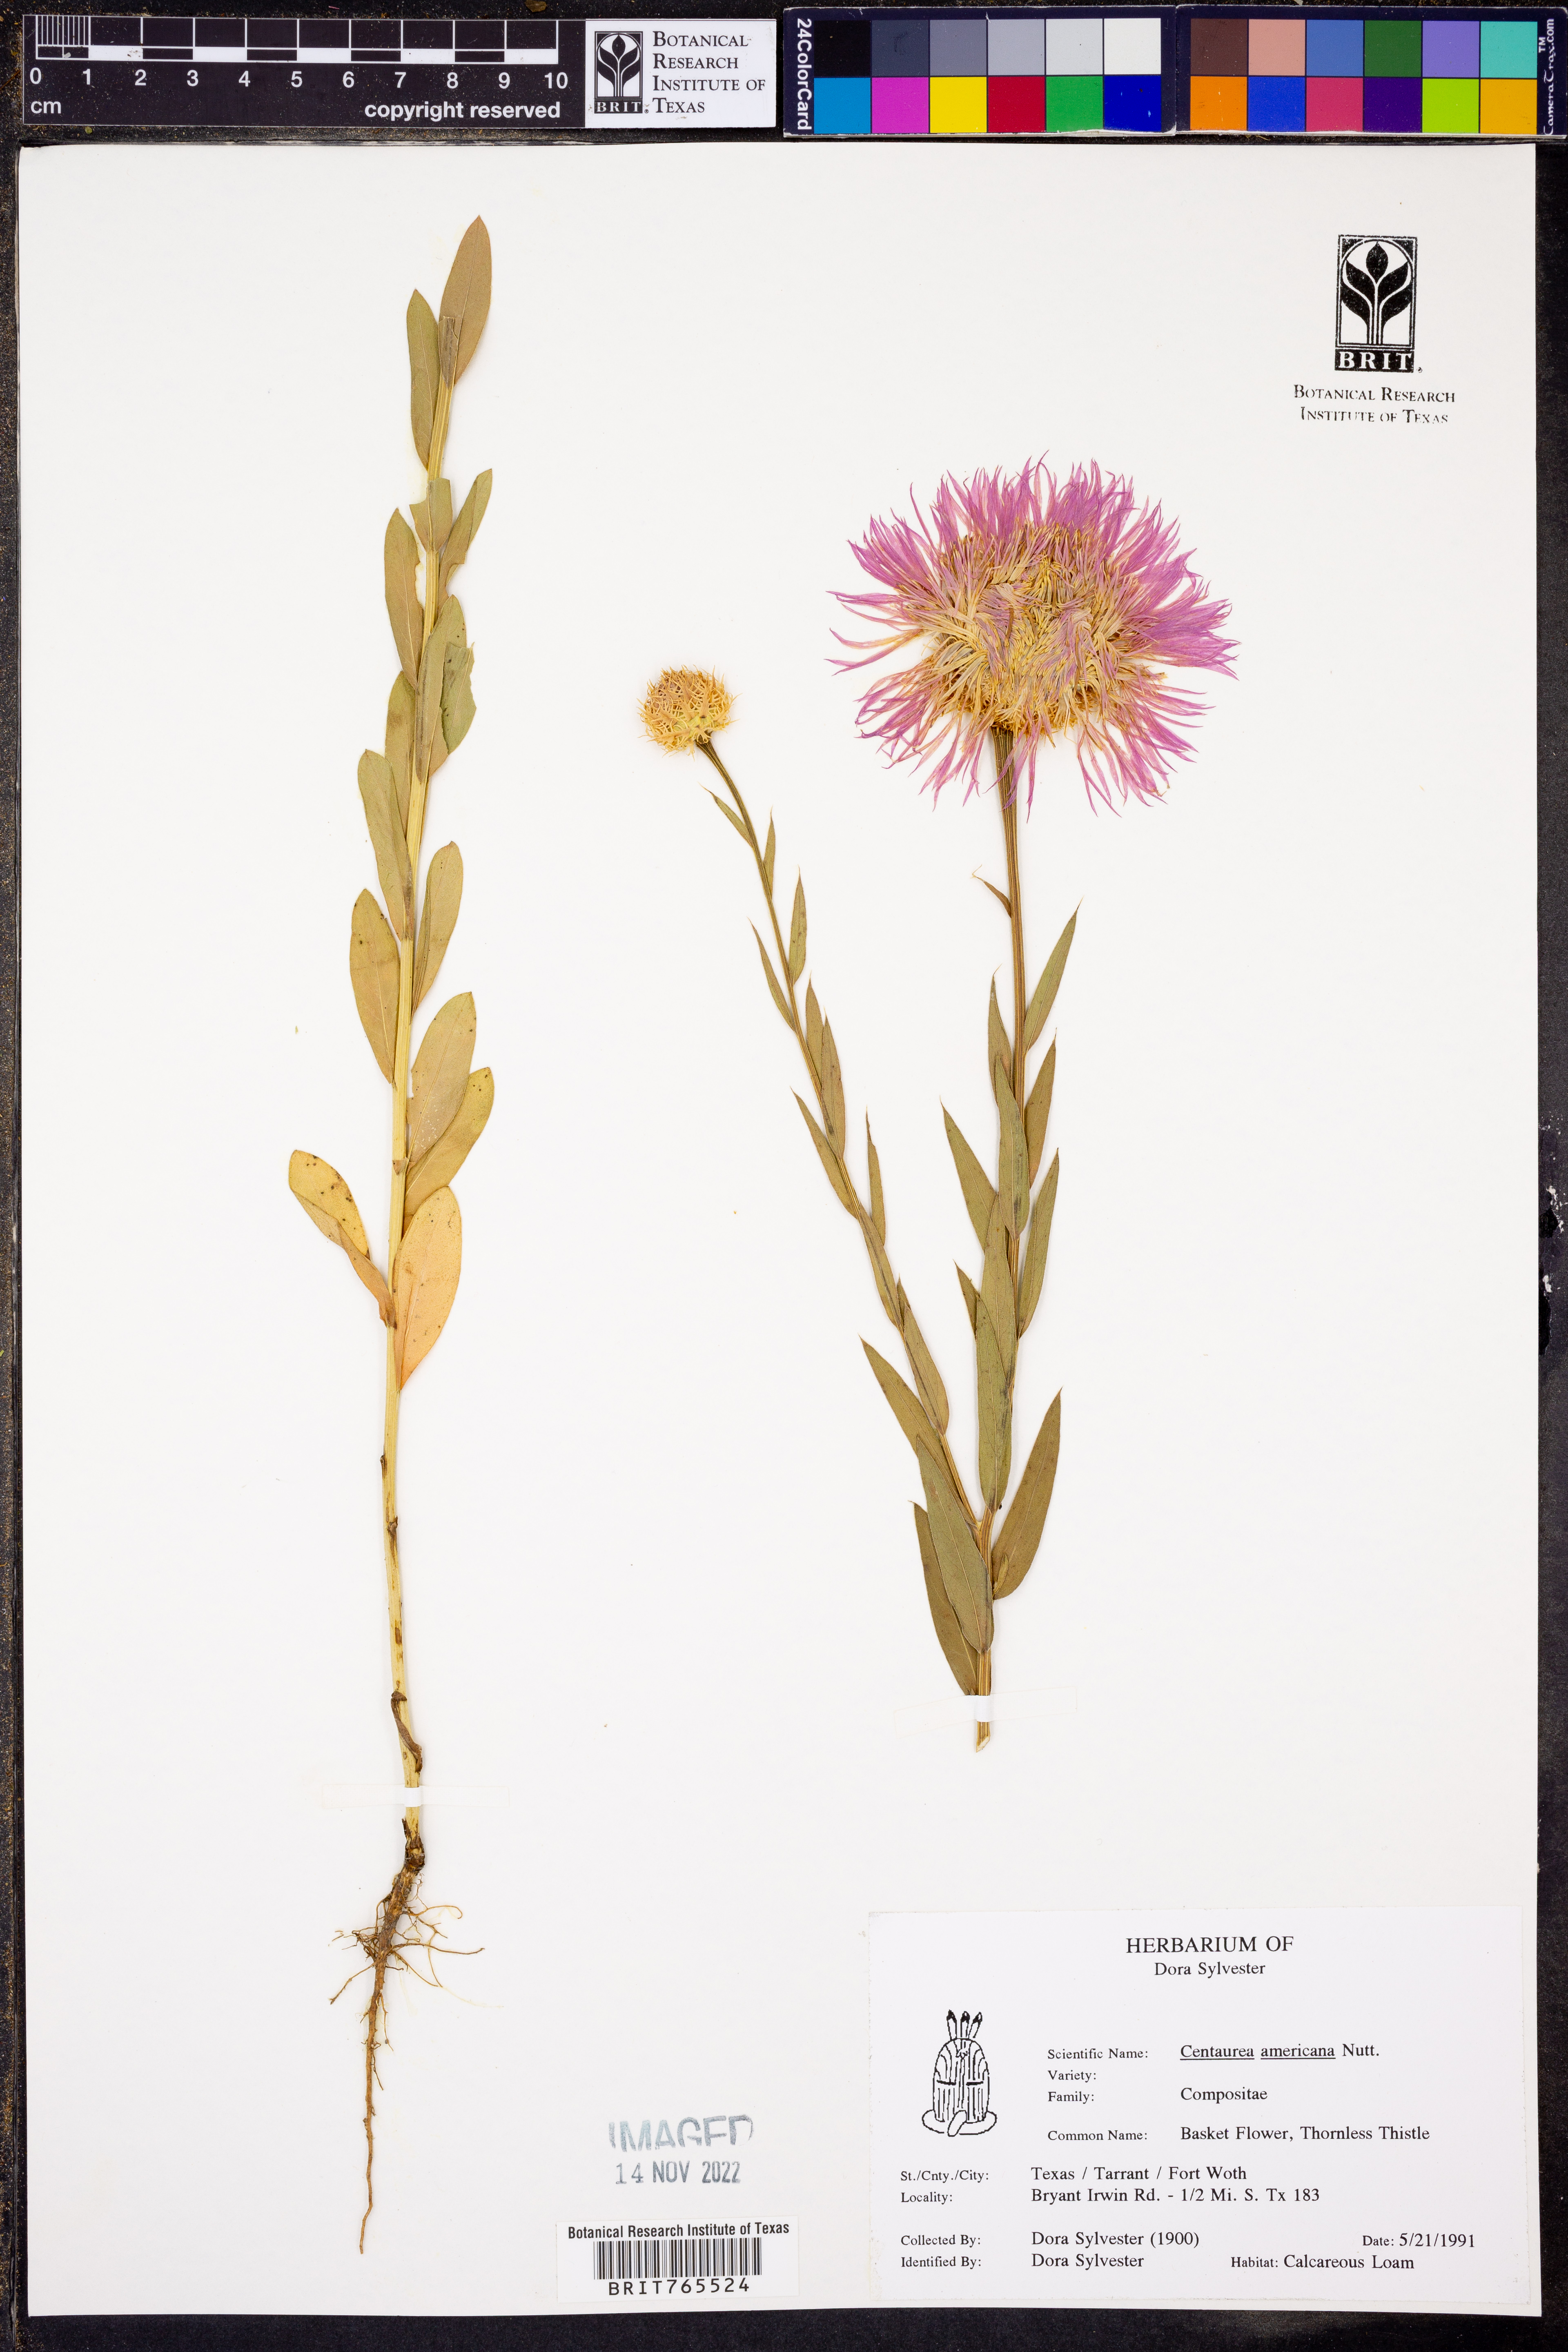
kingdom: Plantae
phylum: Tracheophyta
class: Magnoliopsida
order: Asterales
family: Asteraceae
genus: Plectocephalus
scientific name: Plectocephalus americanus
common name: American basket-flower
